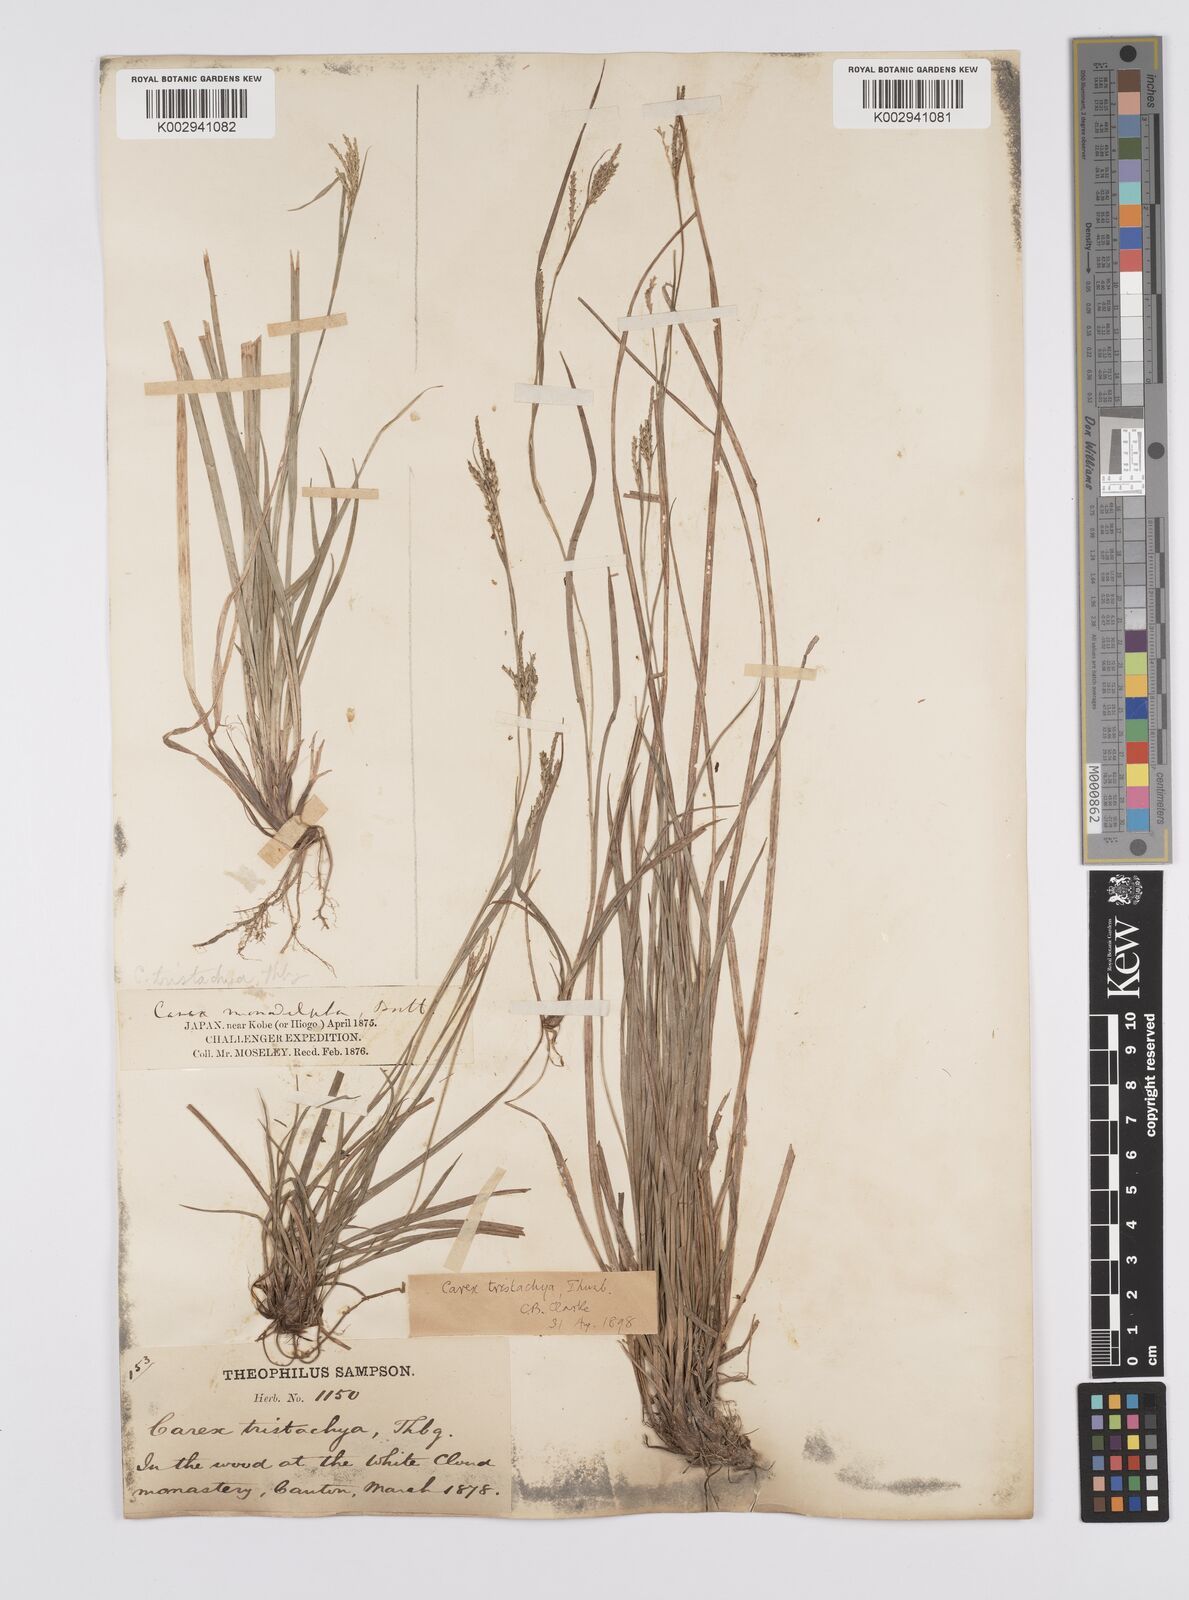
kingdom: Plantae
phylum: Tracheophyta
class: Liliopsida
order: Poales
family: Cyperaceae
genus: Carex
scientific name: Carex tristachya
